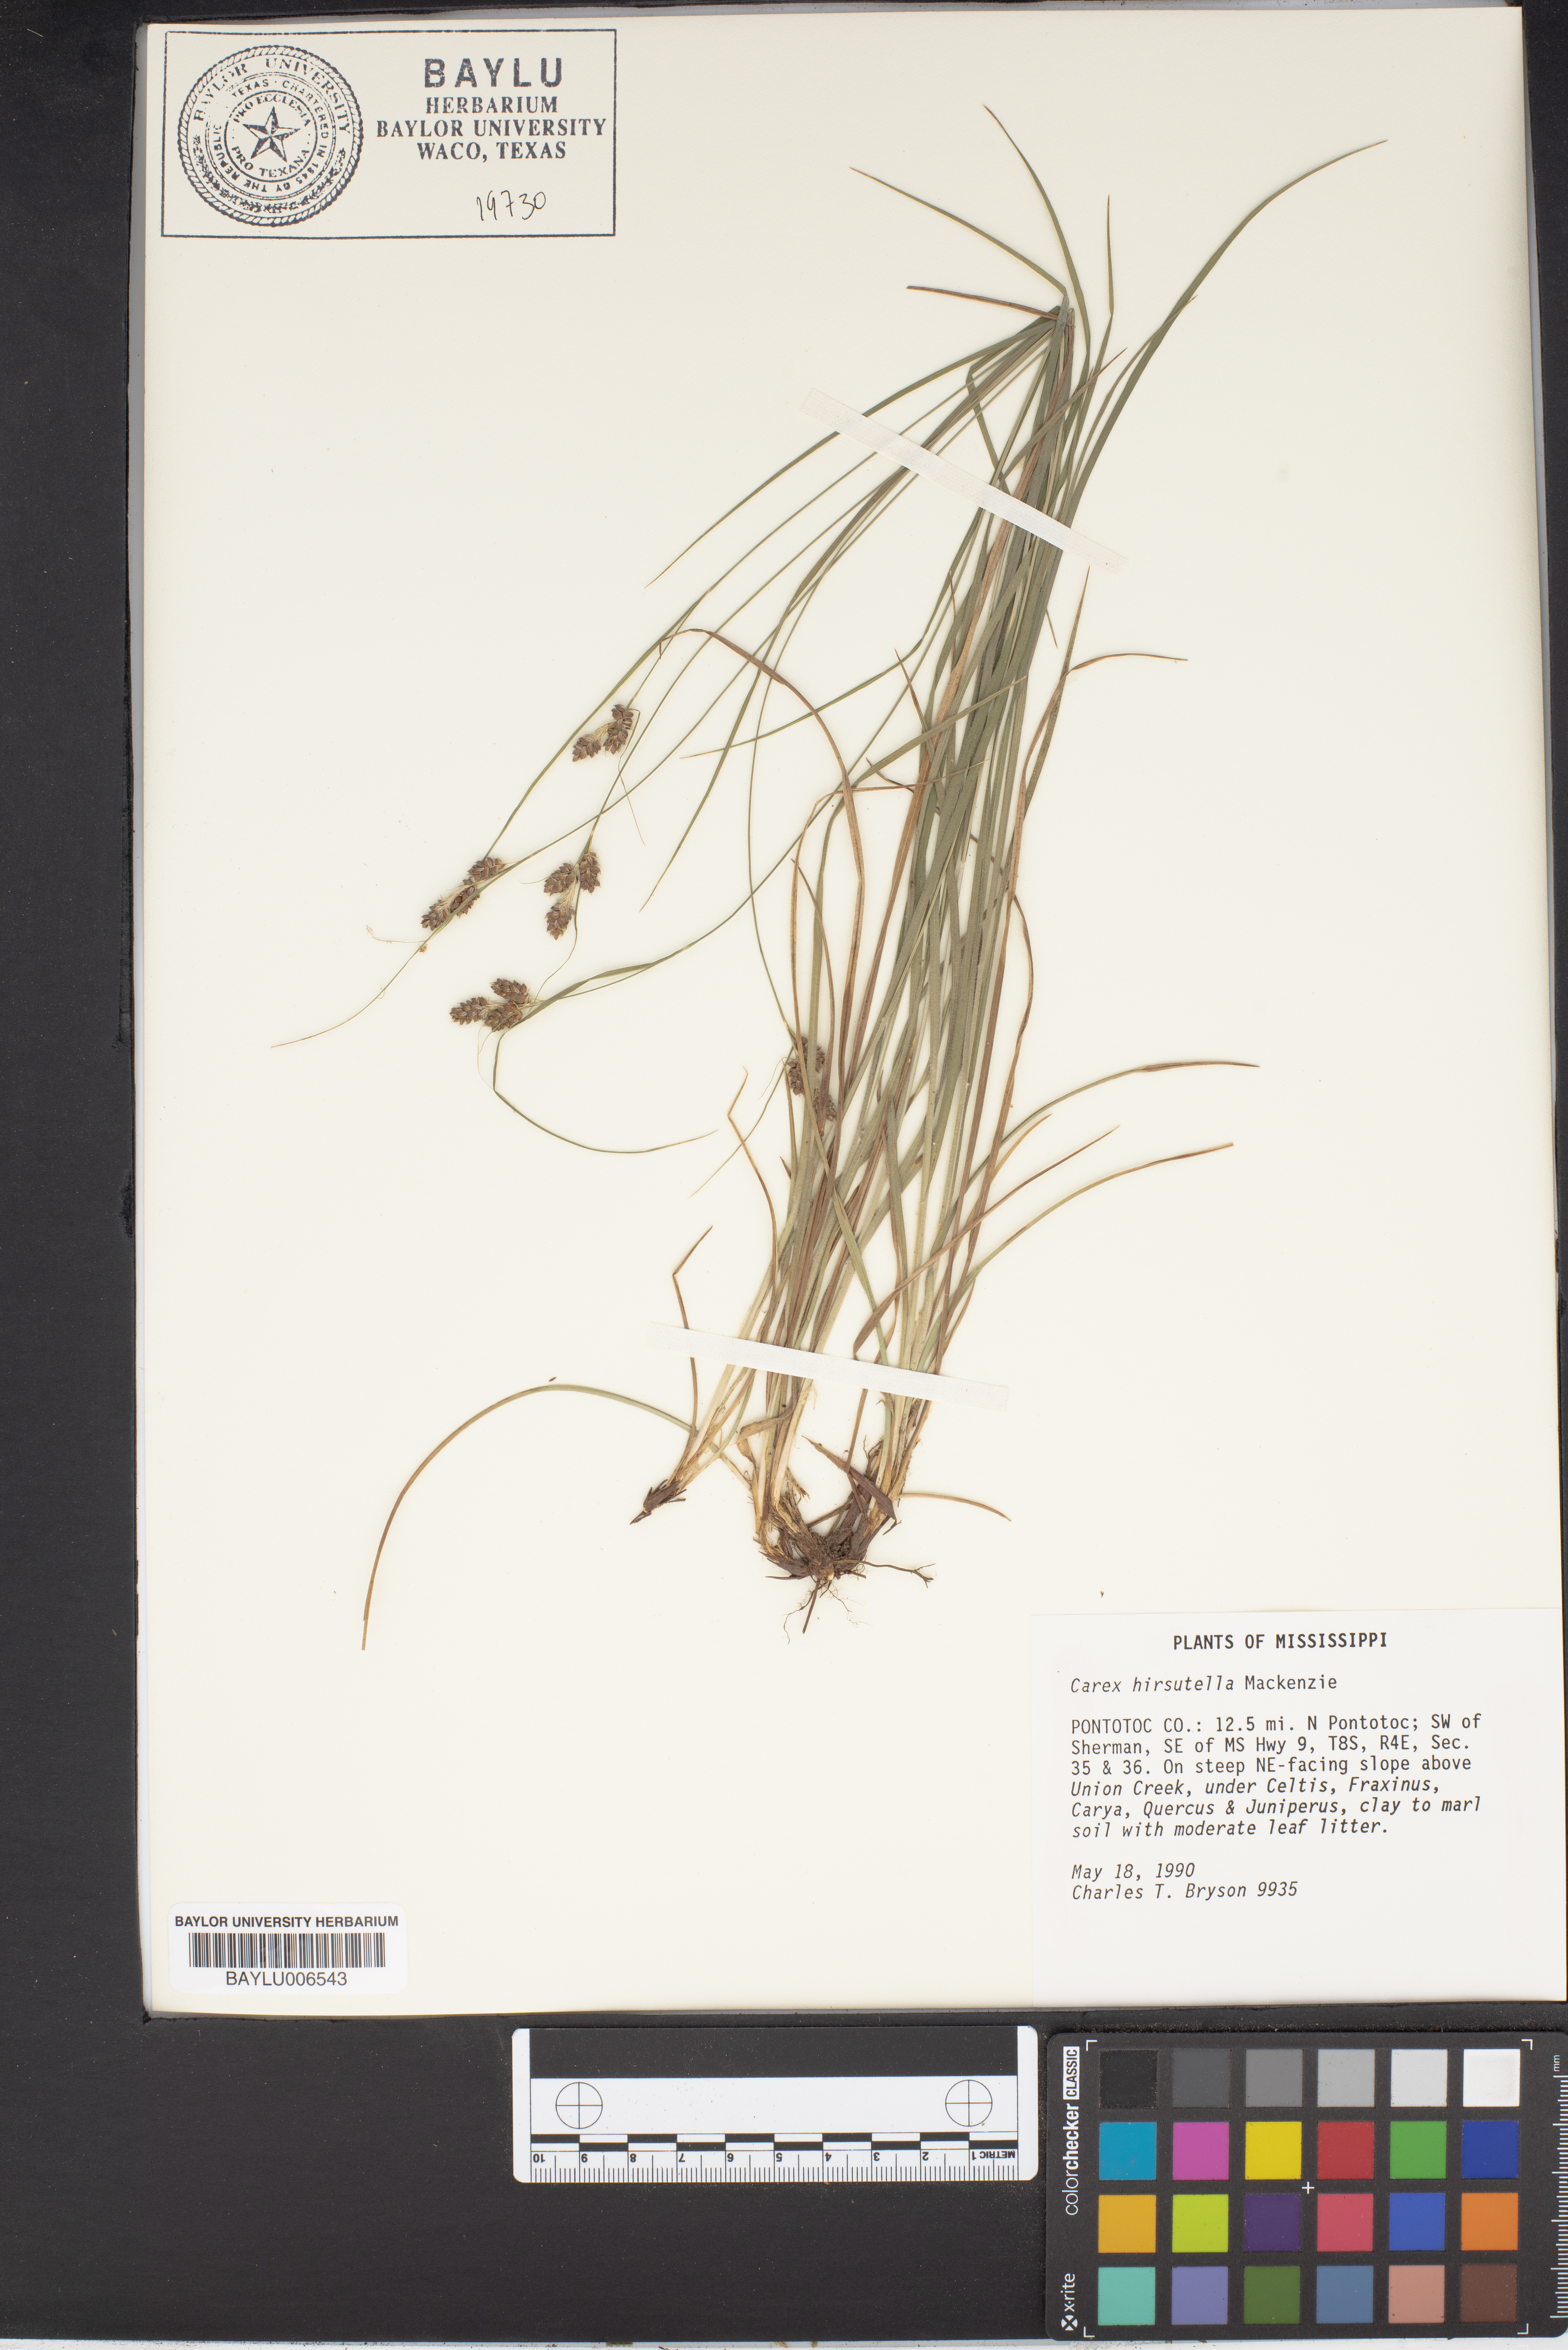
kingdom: Plantae
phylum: Tracheophyta
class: Liliopsida
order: Poales
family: Cyperaceae
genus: Carex
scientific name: Carex hirsutella
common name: Fuzzy wuzzy sedge
